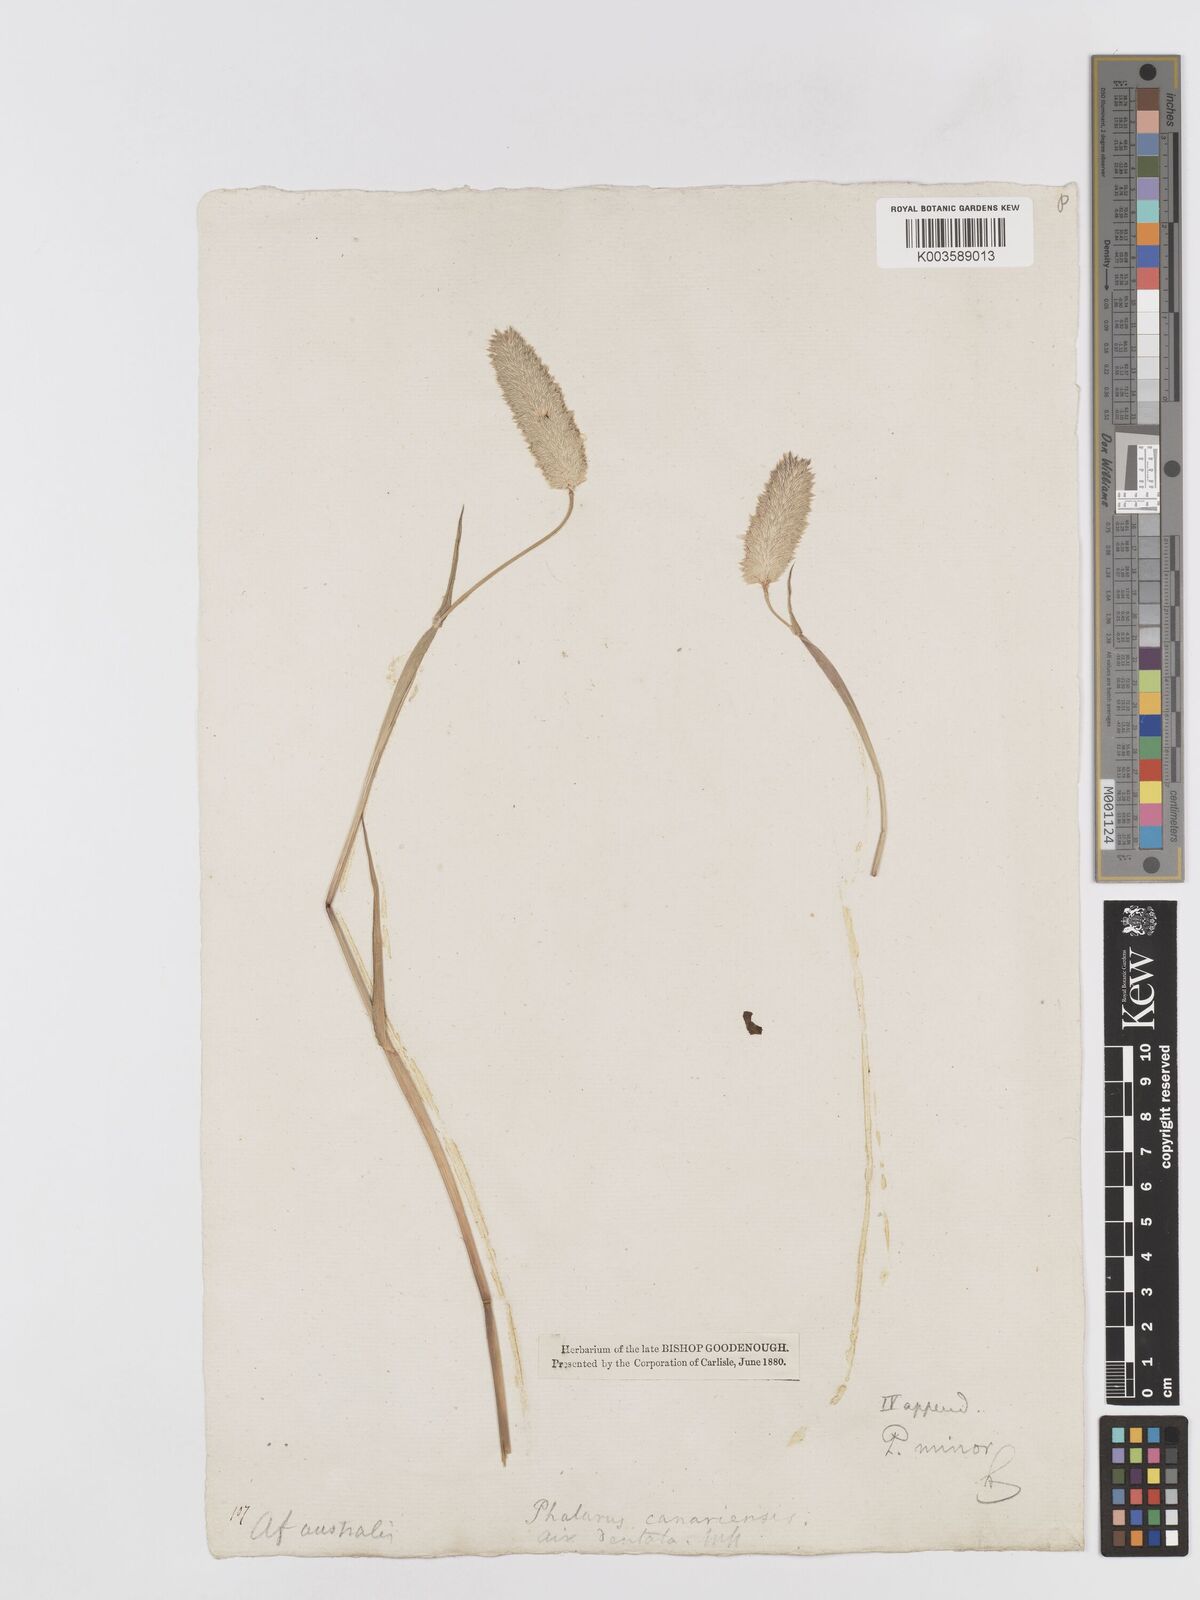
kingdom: Plantae
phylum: Tracheophyta
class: Liliopsida
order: Poales
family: Poaceae
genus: Phalaris
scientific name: Phalaris minor
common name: Littleseed canarygrass
